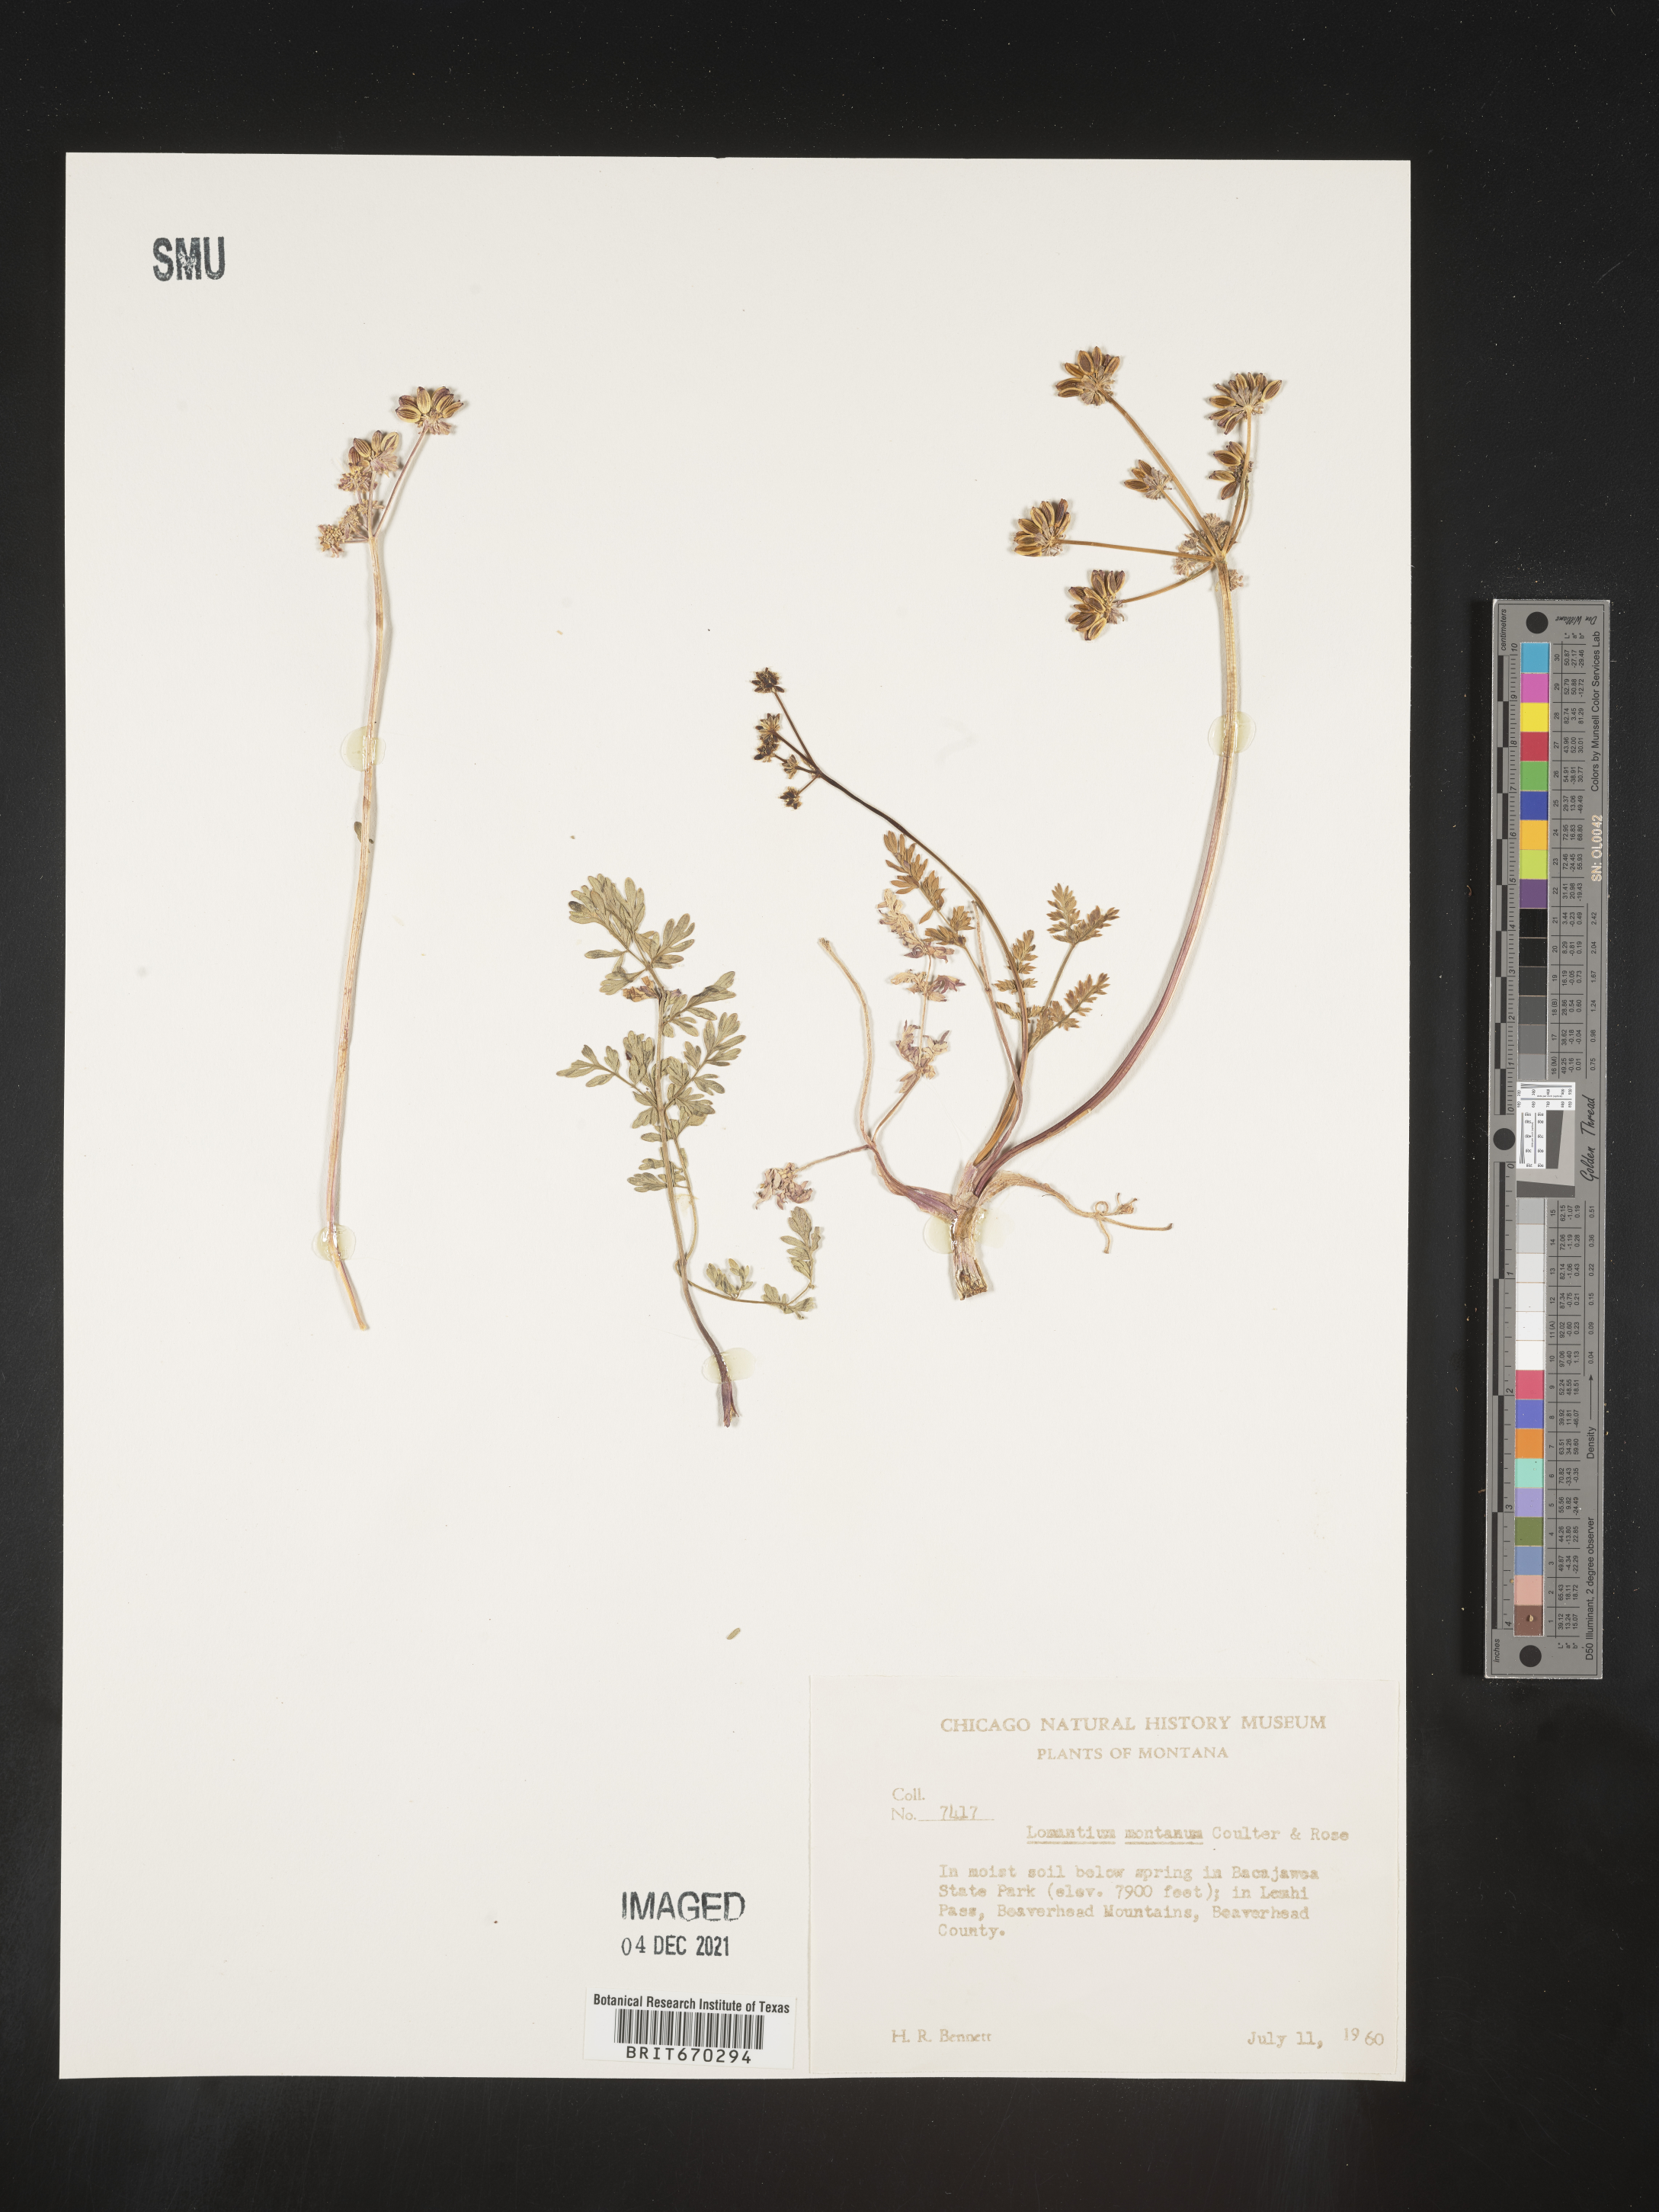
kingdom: Plantae
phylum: Tracheophyta
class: Magnoliopsida
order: Apiales
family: Apiaceae
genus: Lomatium
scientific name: Lomatium cous
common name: Biscuit-root
